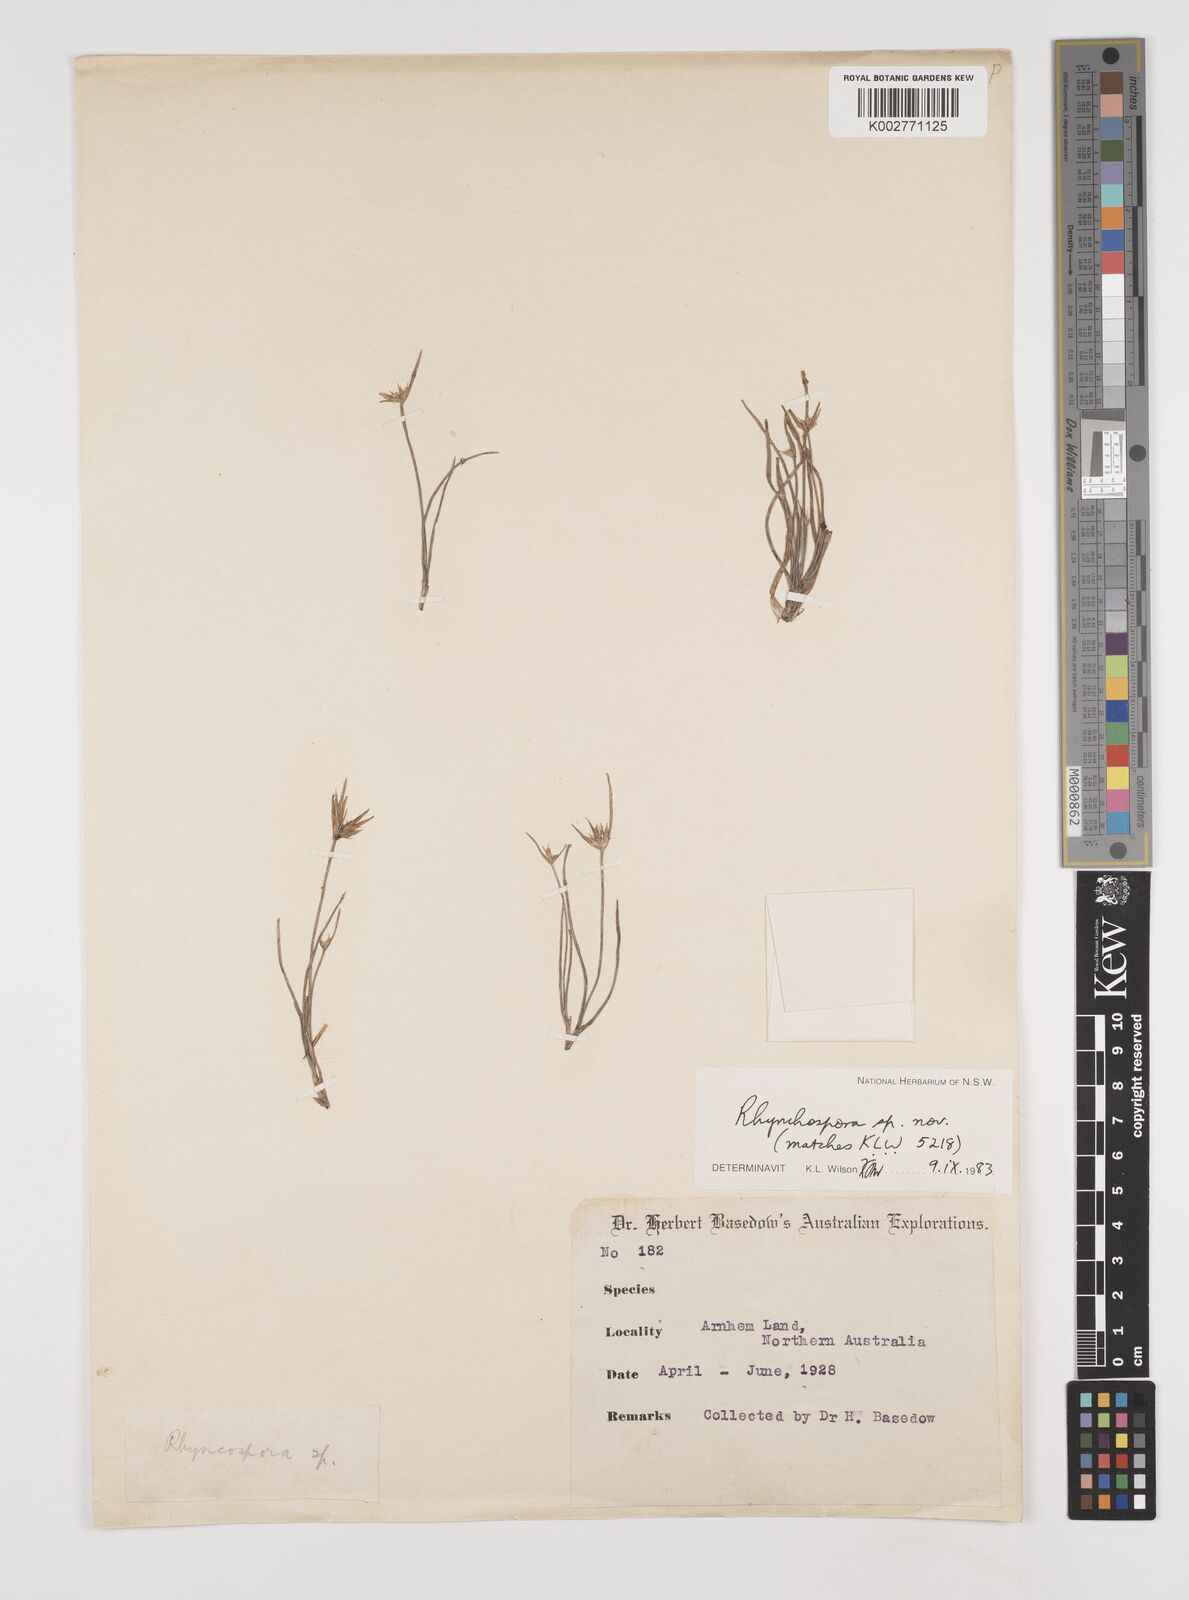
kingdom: Plantae
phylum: Tracheophyta
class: Liliopsida
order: Poales
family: Cyperaceae
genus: Rhynchospora
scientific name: Rhynchospora
